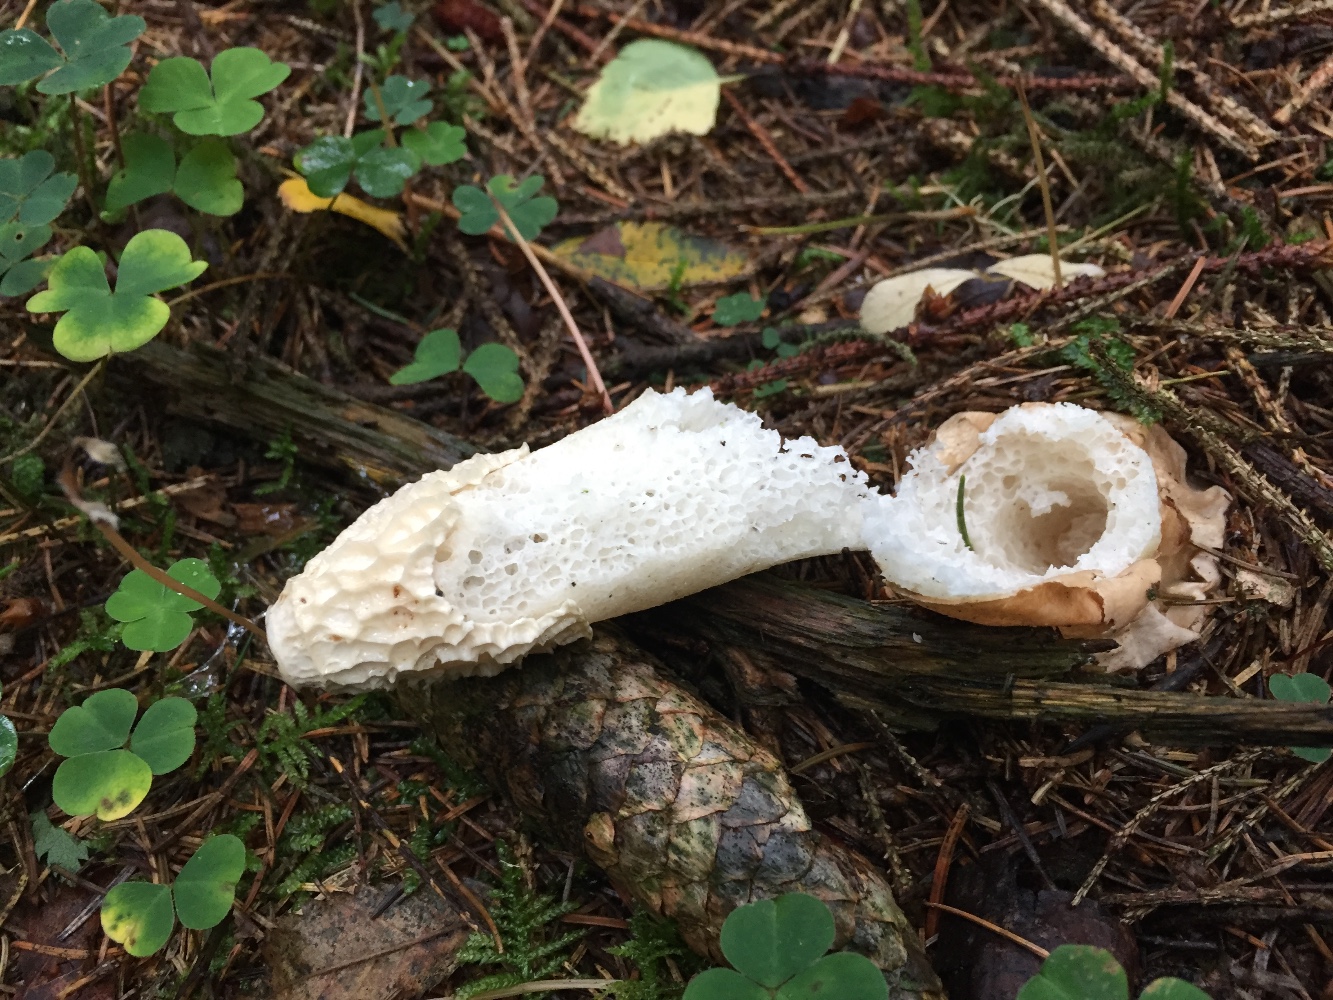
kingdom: Fungi
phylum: Basidiomycota
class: Agaricomycetes
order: Phallales
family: Phallaceae
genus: Phallus
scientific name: Phallus impudicus
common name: almindelig stinksvamp
